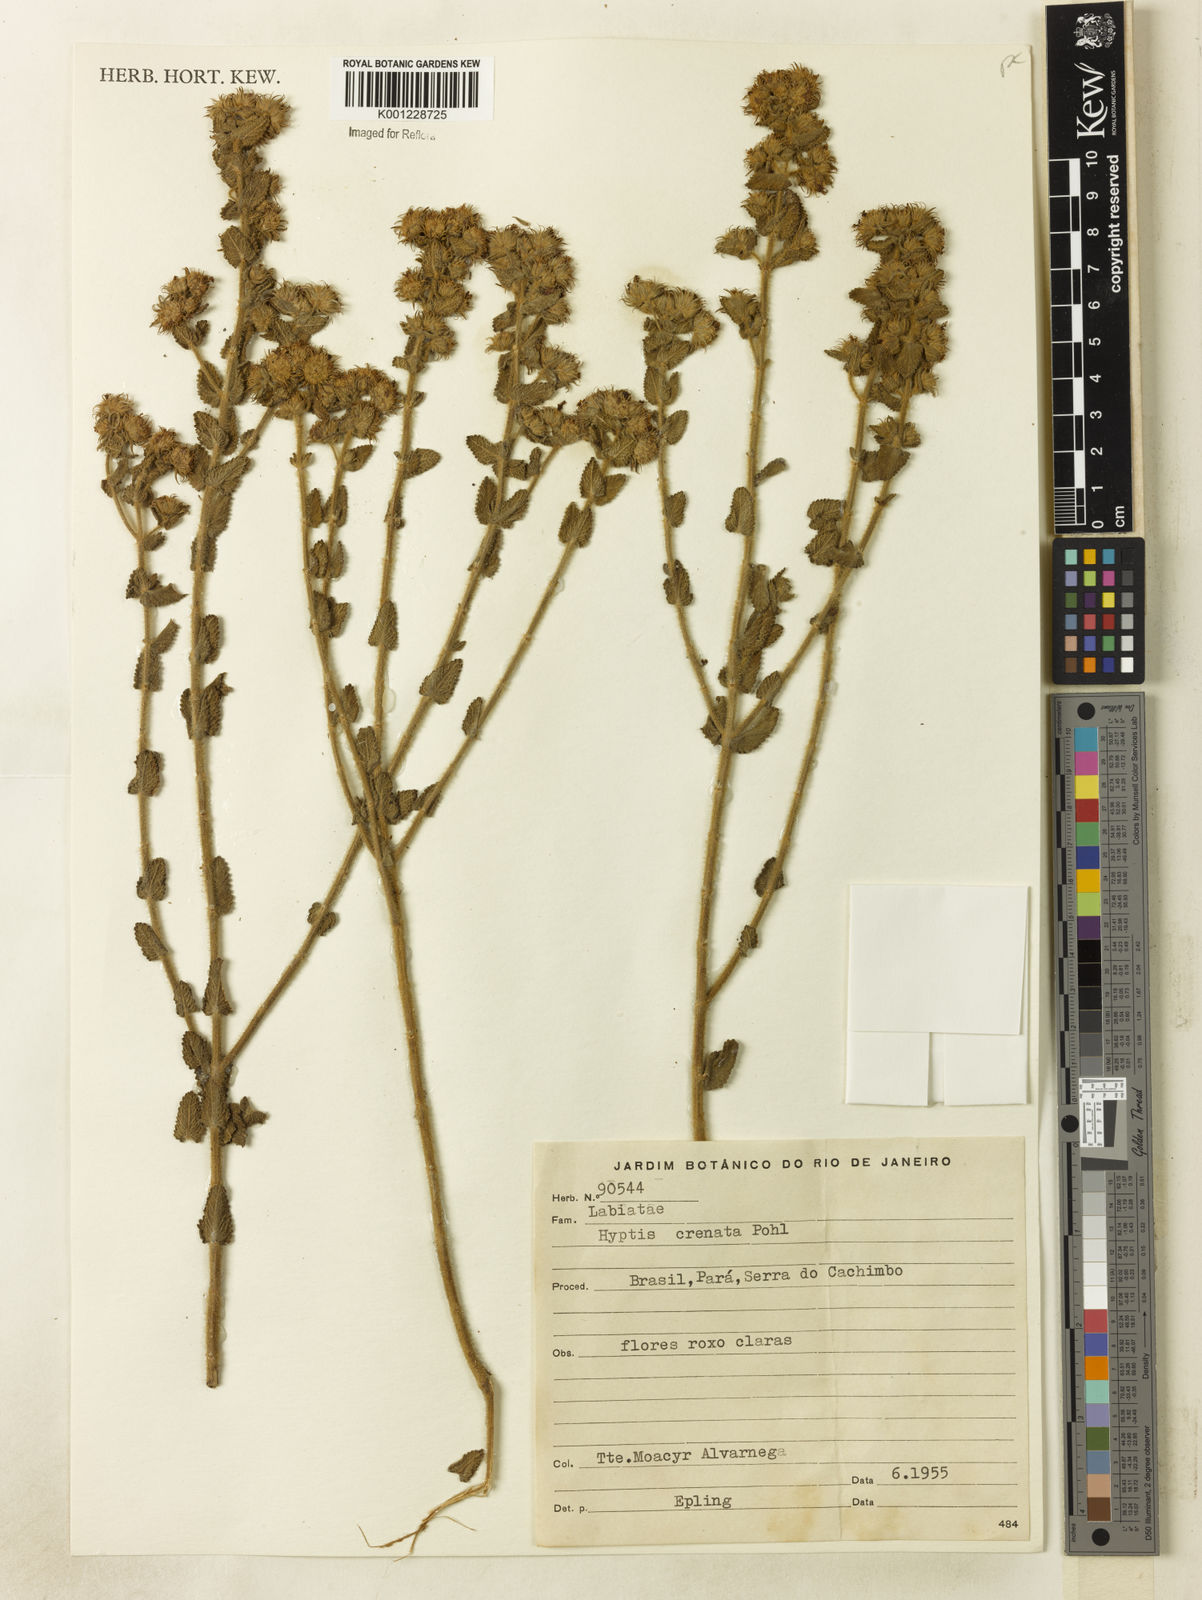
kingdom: Plantae
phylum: Tracheophyta
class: Magnoliopsida
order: Lamiales
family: Lamiaceae
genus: Hyptis
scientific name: Hyptis crenata
